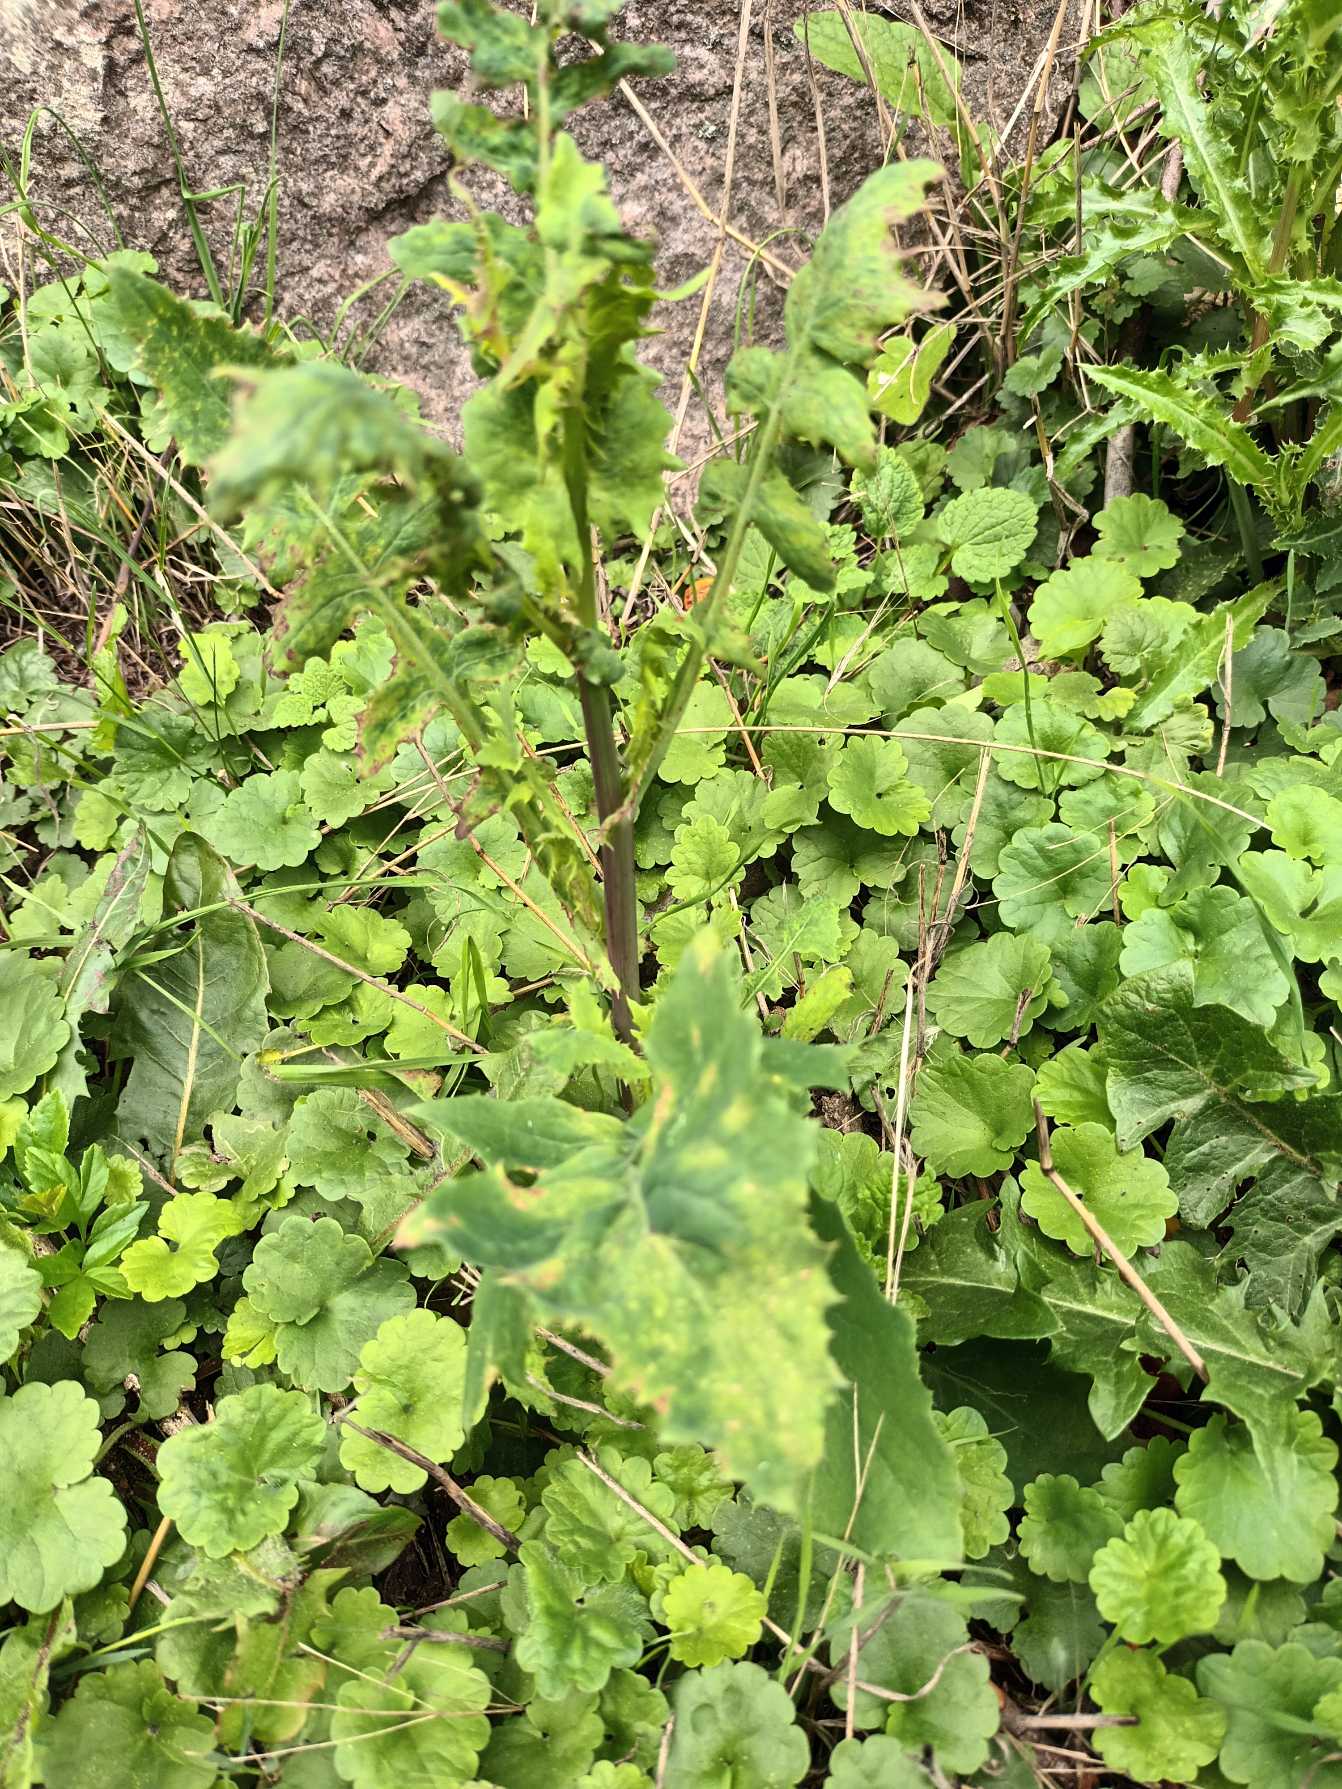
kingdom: Plantae
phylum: Tracheophyta
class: Magnoliopsida
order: Asterales
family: Asteraceae
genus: Sonchus
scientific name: Sonchus oleraceus
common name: Almindelig svinemælk
